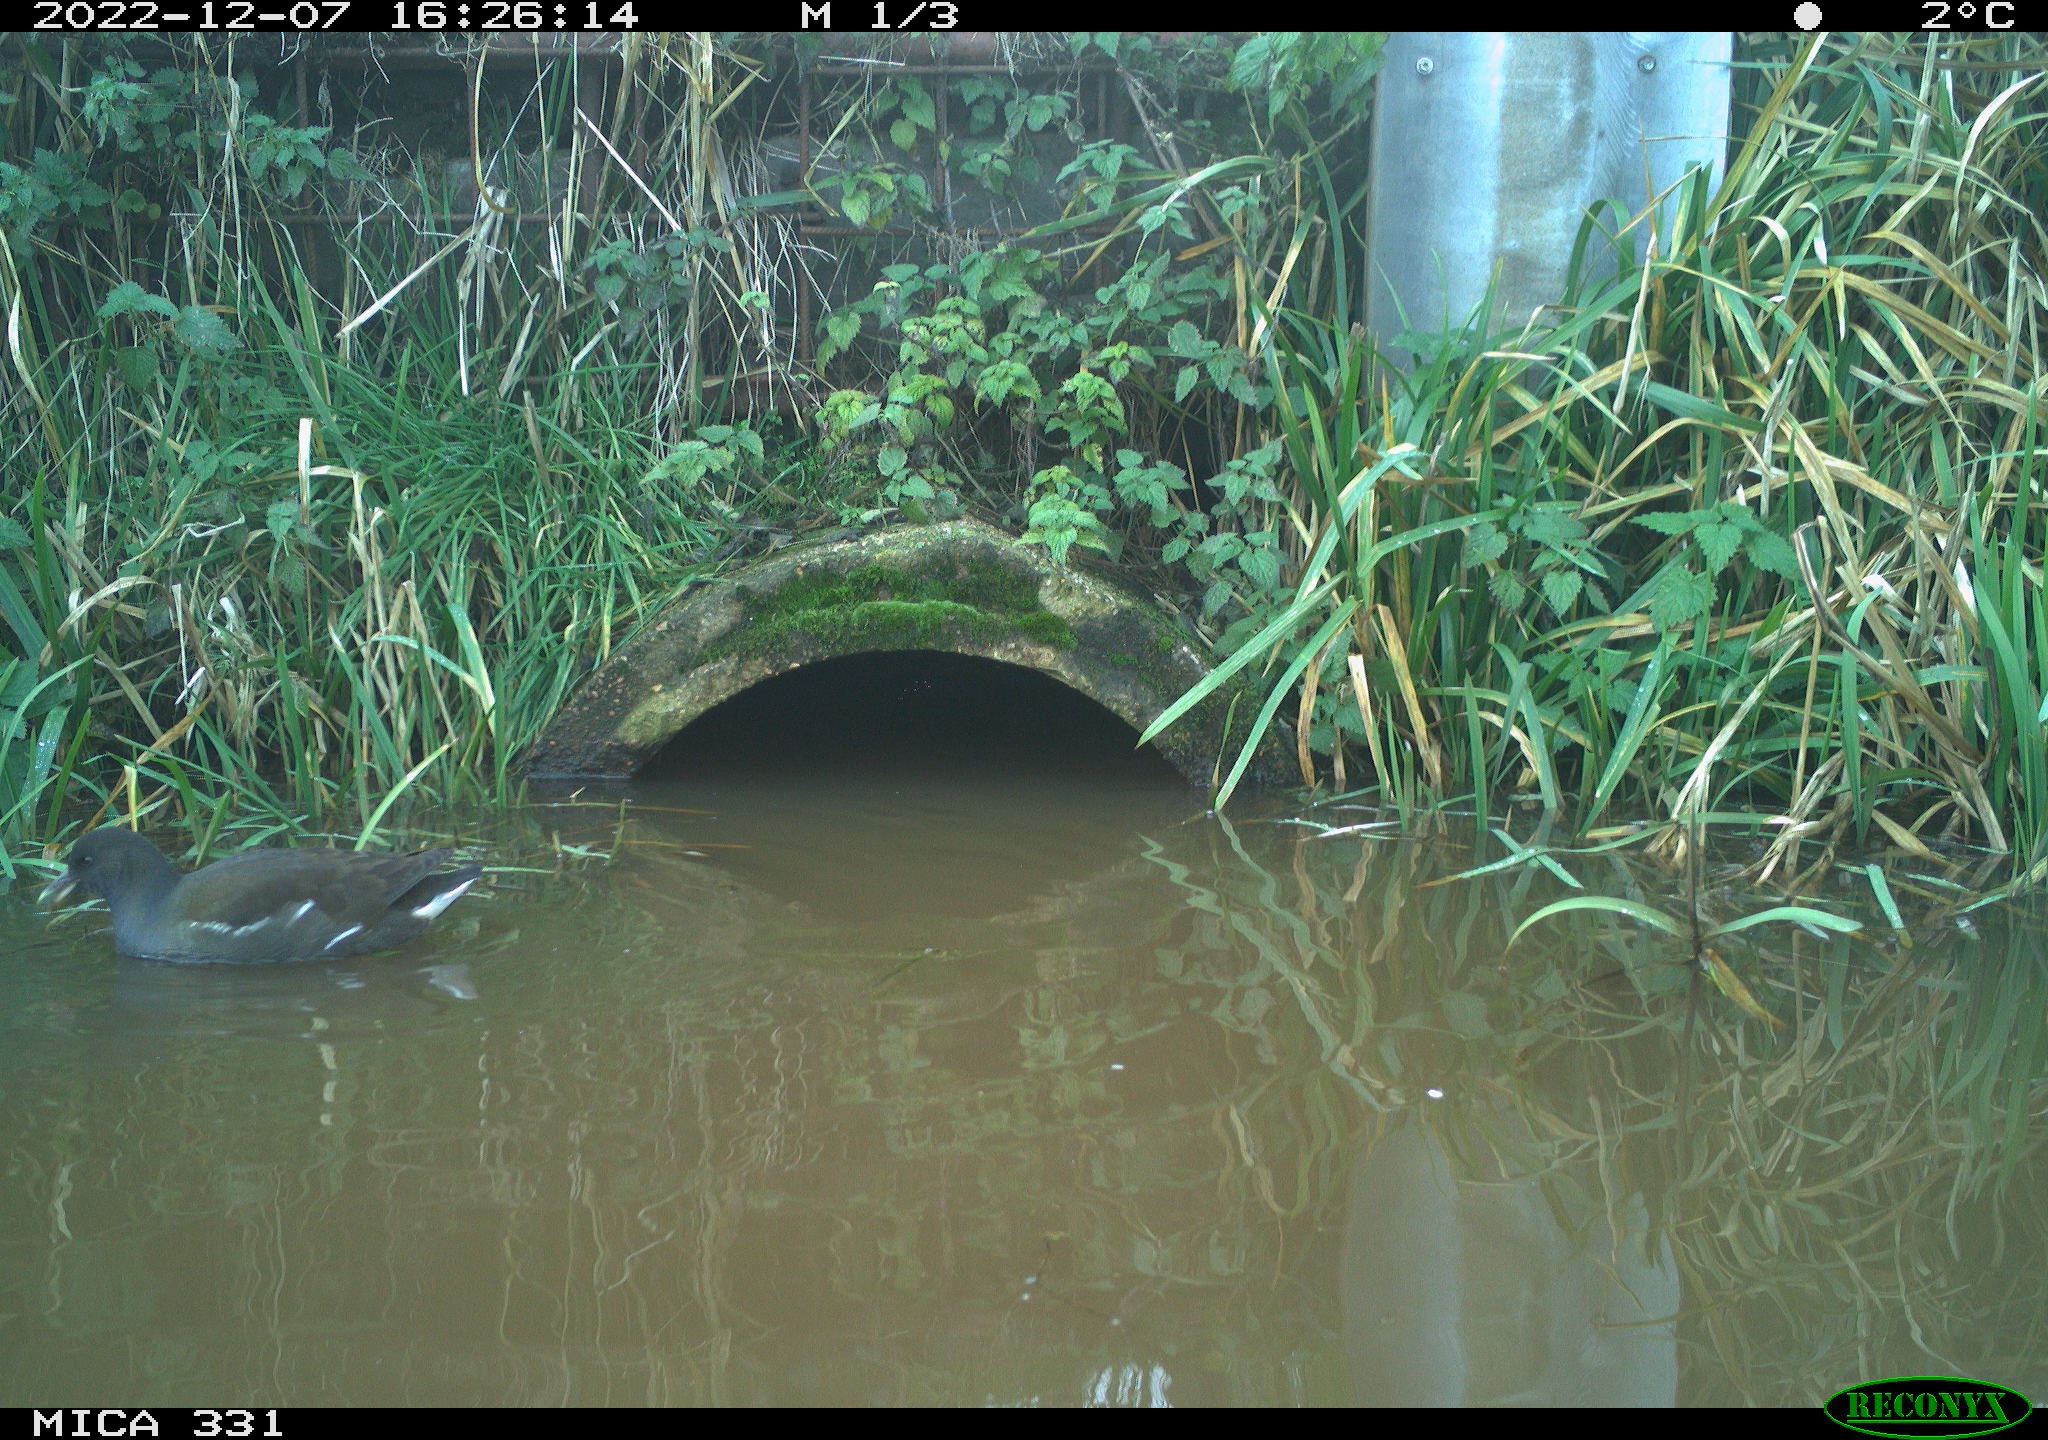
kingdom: Animalia
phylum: Chordata
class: Aves
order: Gruiformes
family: Rallidae
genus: Gallinula
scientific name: Gallinula chloropus
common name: Common moorhen
